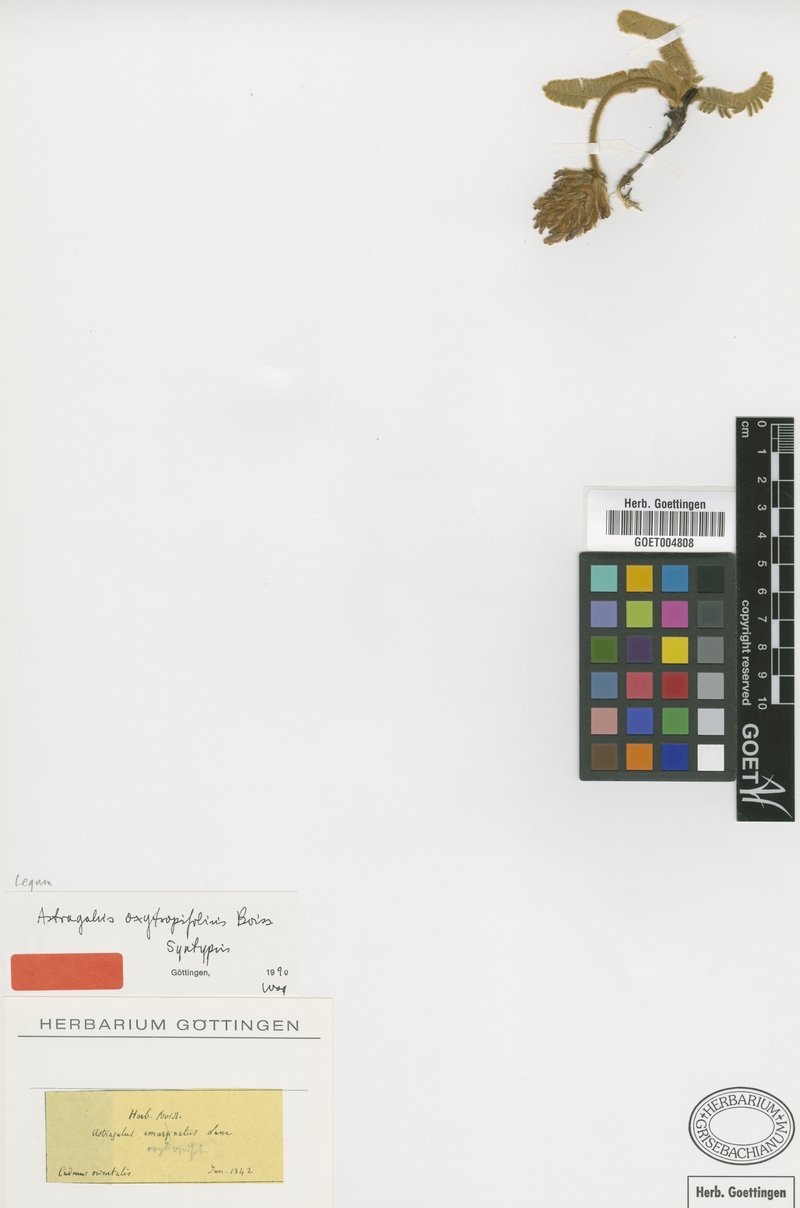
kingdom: Plantae
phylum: Tracheophyta
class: Magnoliopsida
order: Fabales
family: Fabaceae
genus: Astragalus
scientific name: Astragalus oxytropifolius
